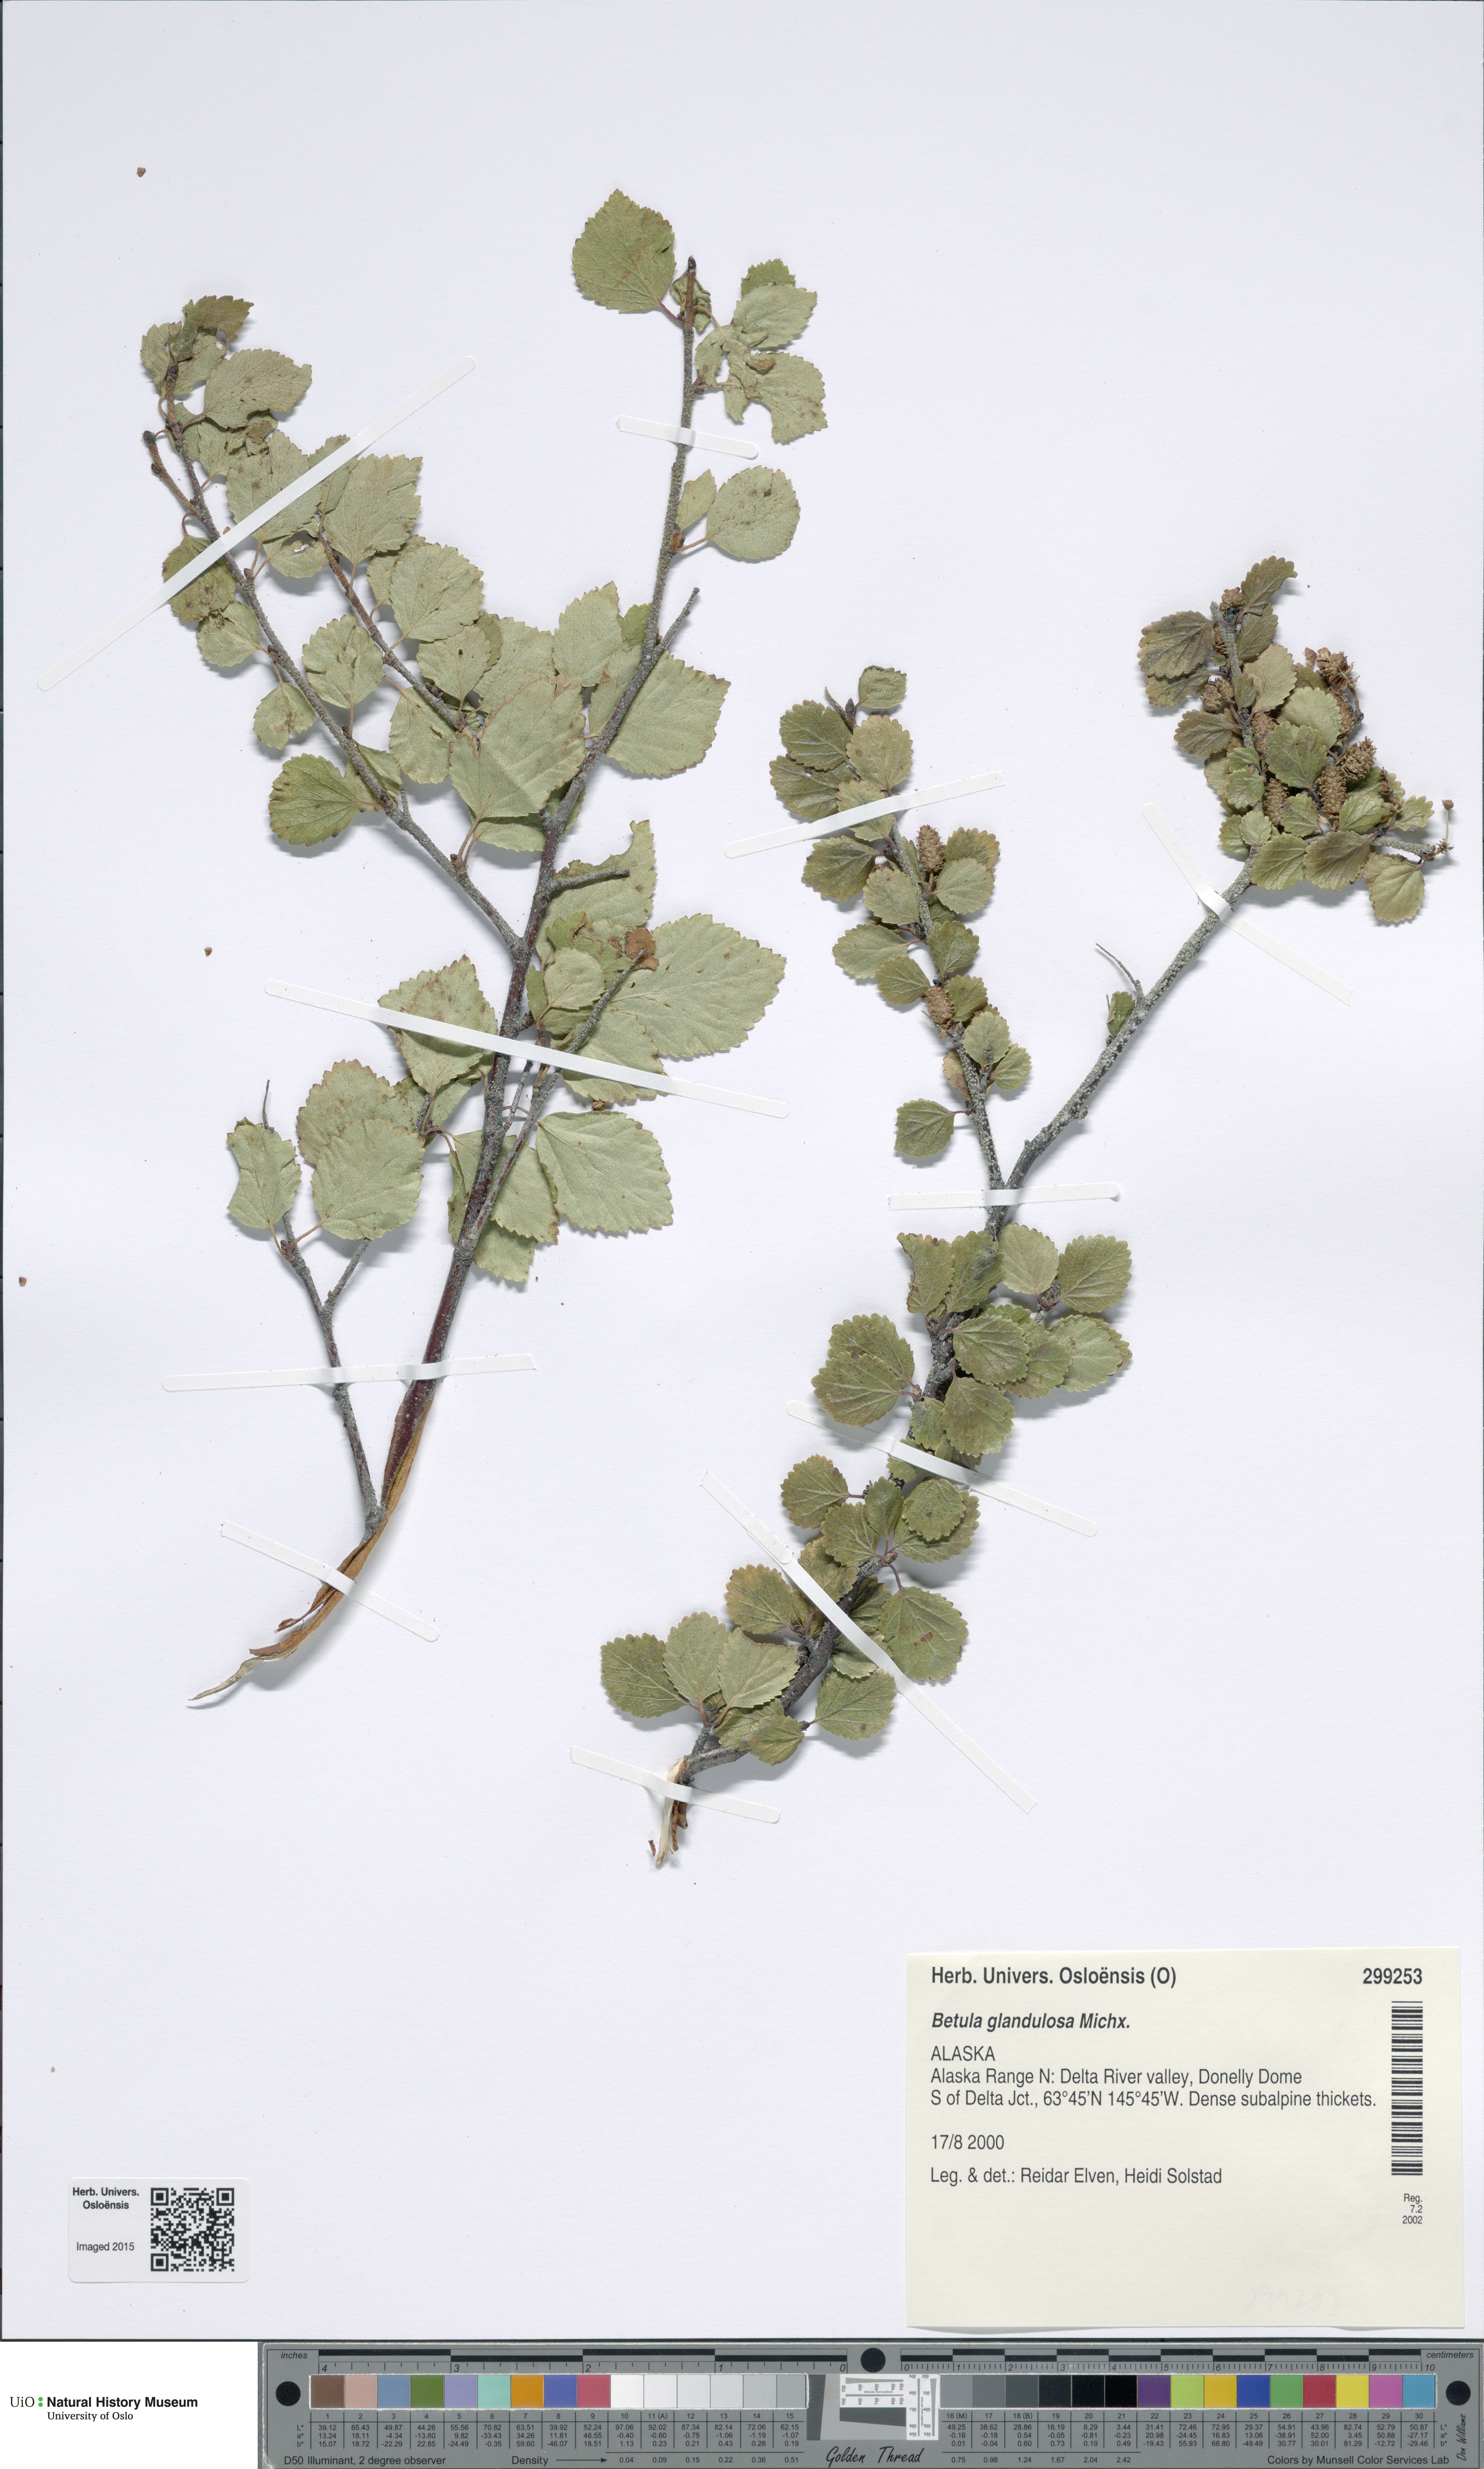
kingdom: Plantae
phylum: Tracheophyta
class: Magnoliopsida
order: Fagales
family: Betulaceae
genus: Betula
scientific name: Betula glandulosa
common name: Dwarf birch
